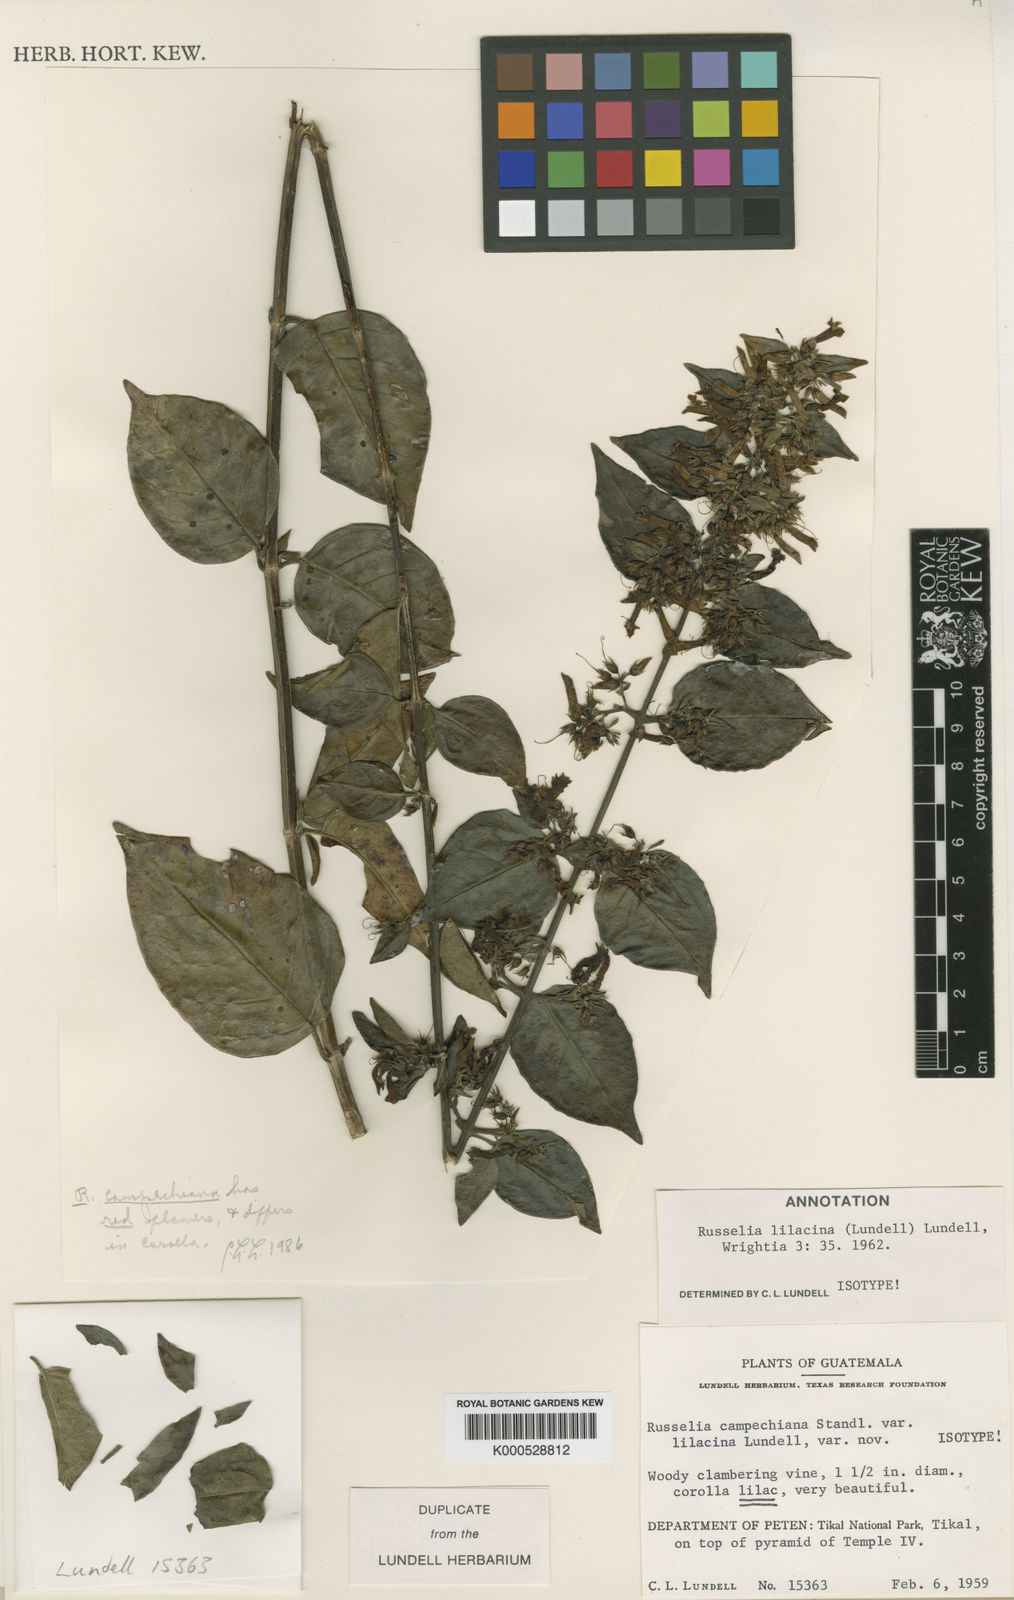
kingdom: Plantae
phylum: Tracheophyta
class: Magnoliopsida
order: Lamiales
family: Plantaginaceae
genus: Russelia
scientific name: Russelia campechiana
